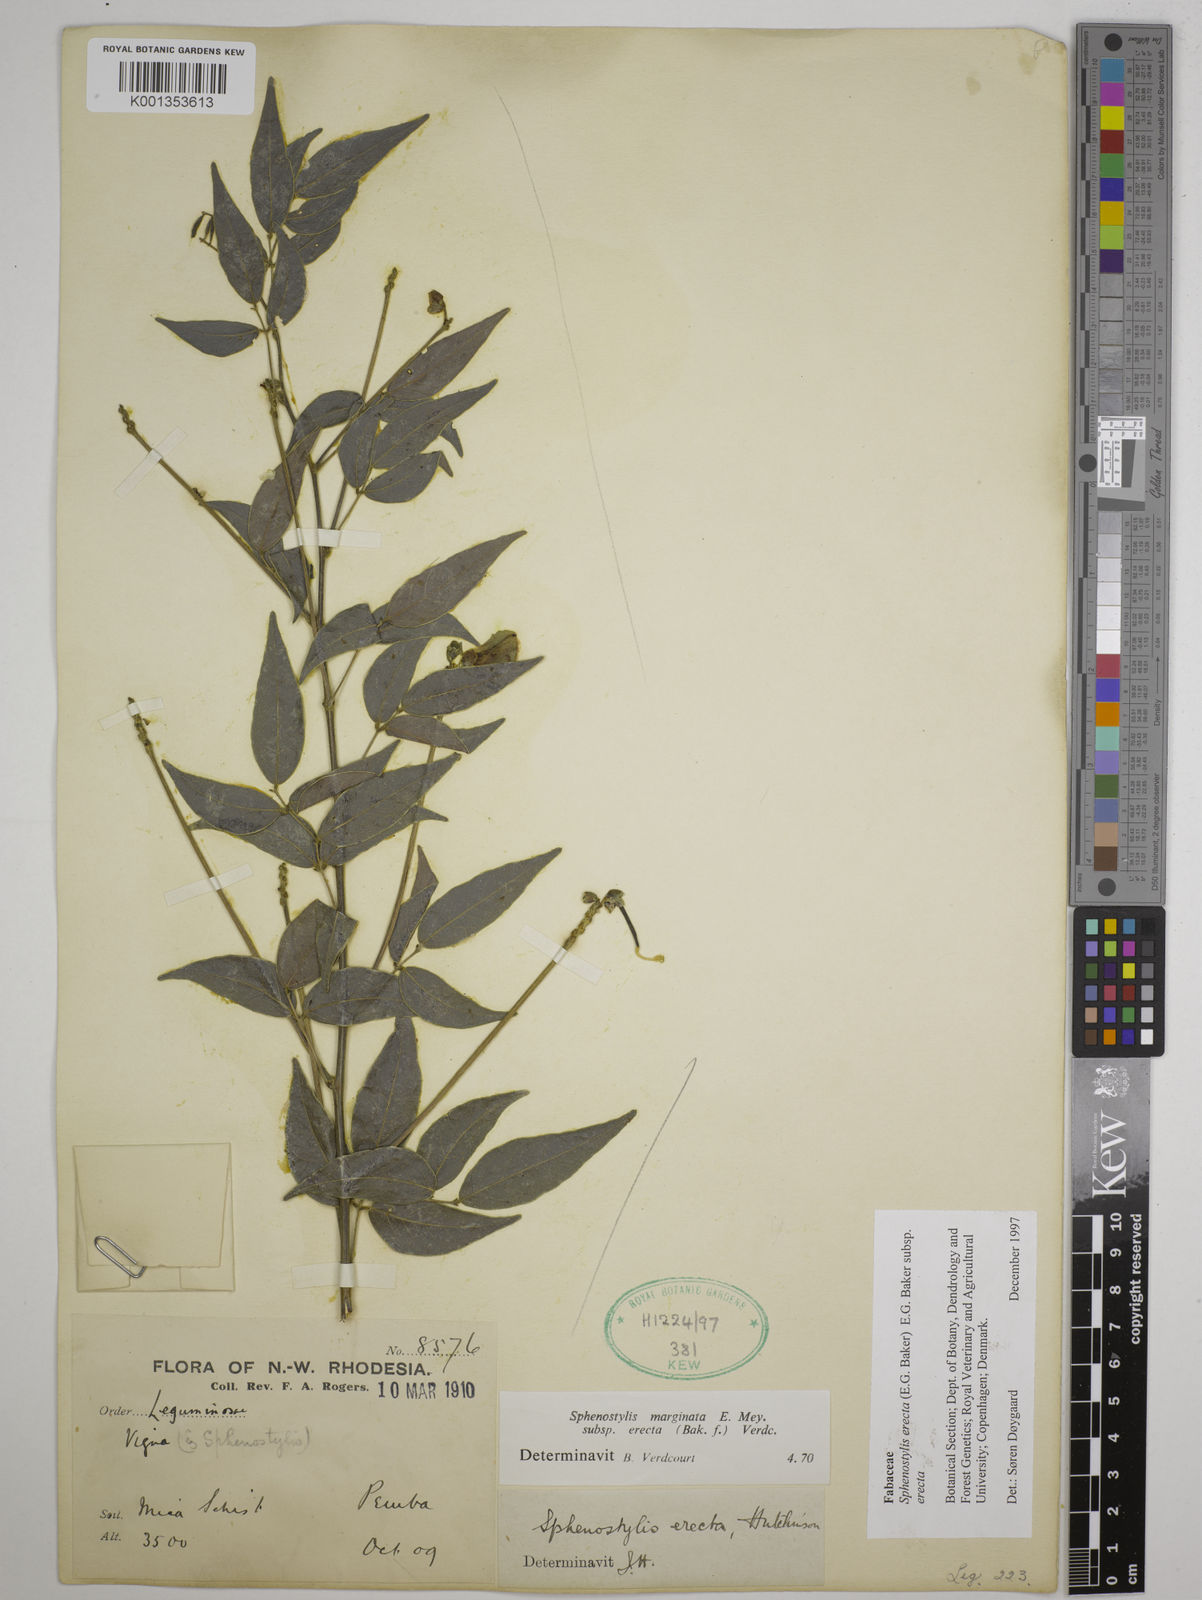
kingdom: Plantae
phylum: Tracheophyta
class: Magnoliopsida
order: Fabales
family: Fabaceae
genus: Sphenostylis
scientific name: Sphenostylis erecta
